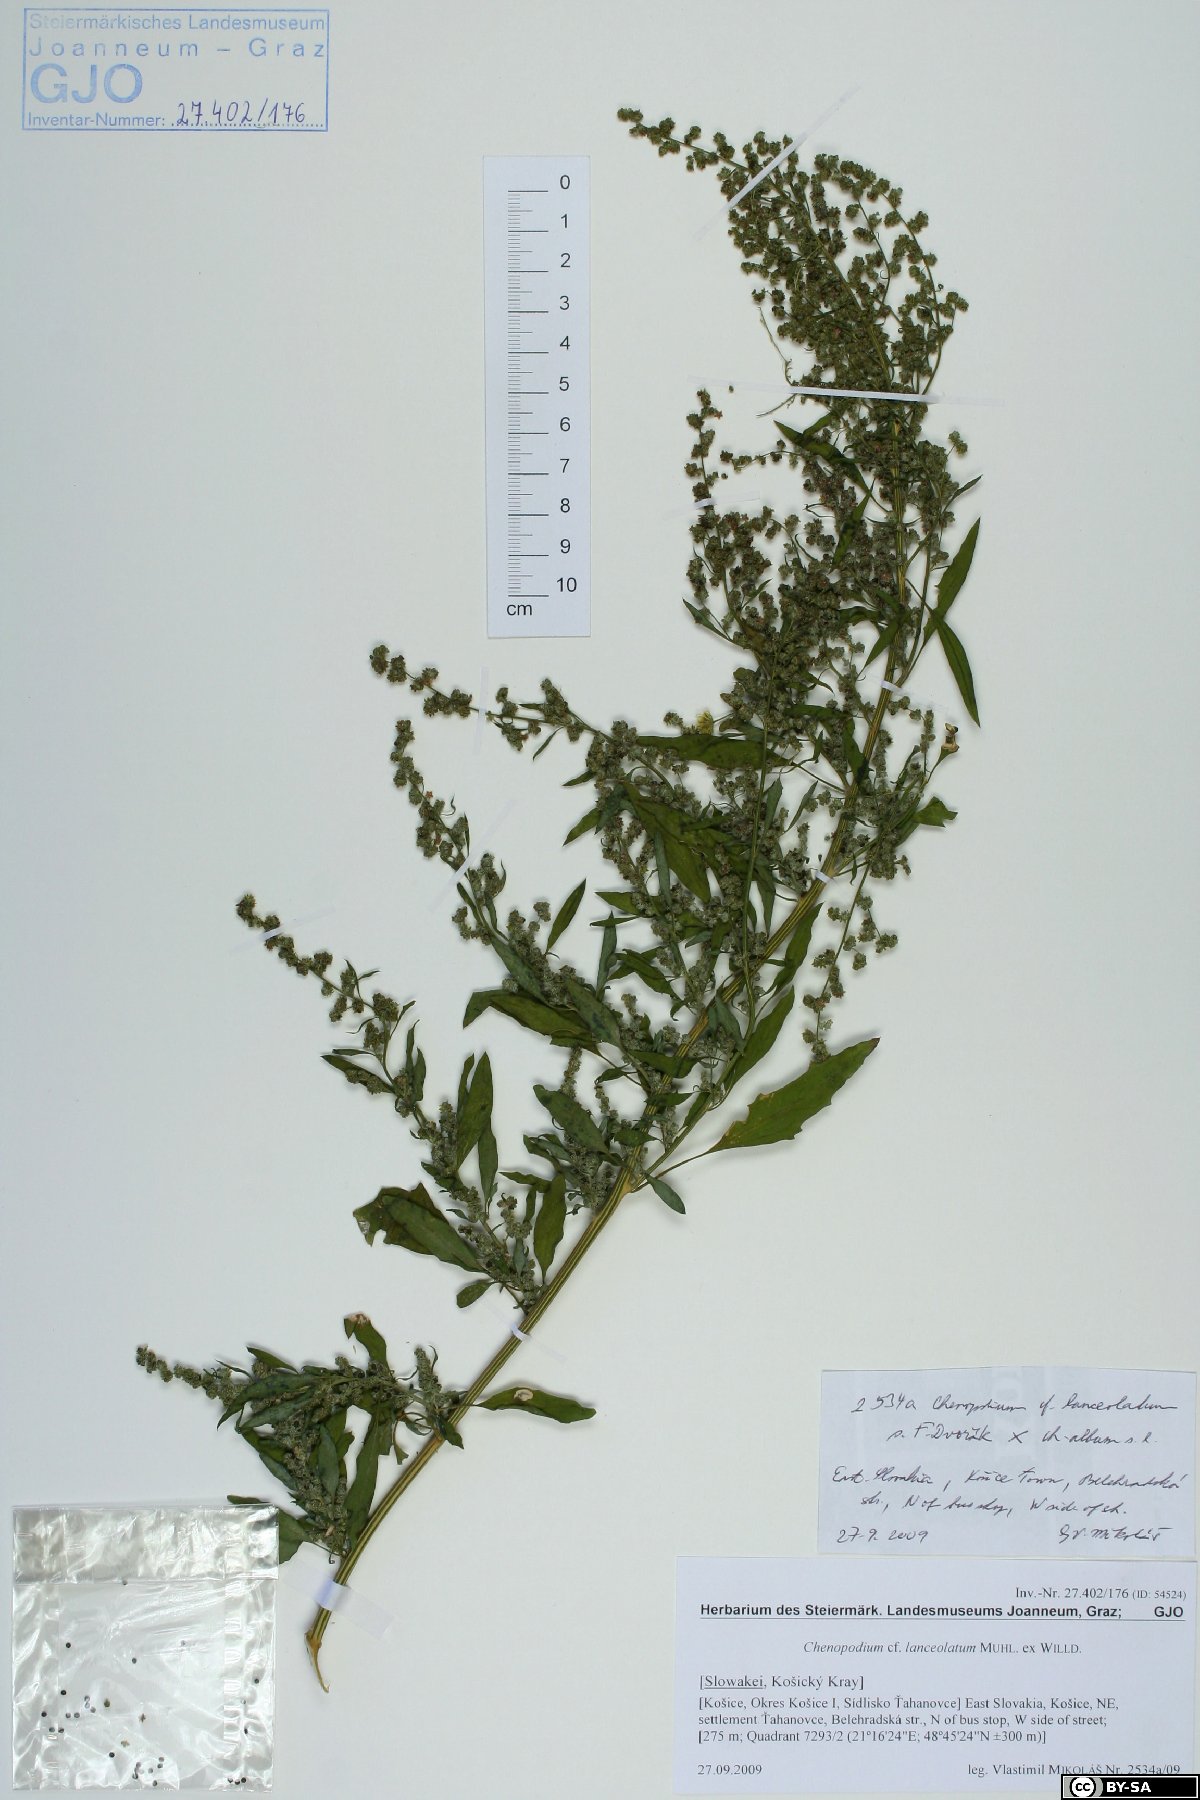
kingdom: Plantae
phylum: Tracheophyta
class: Magnoliopsida
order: Caryophyllales
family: Amaranthaceae
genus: Chenopodium
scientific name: Chenopodium album
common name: Fat-hen
